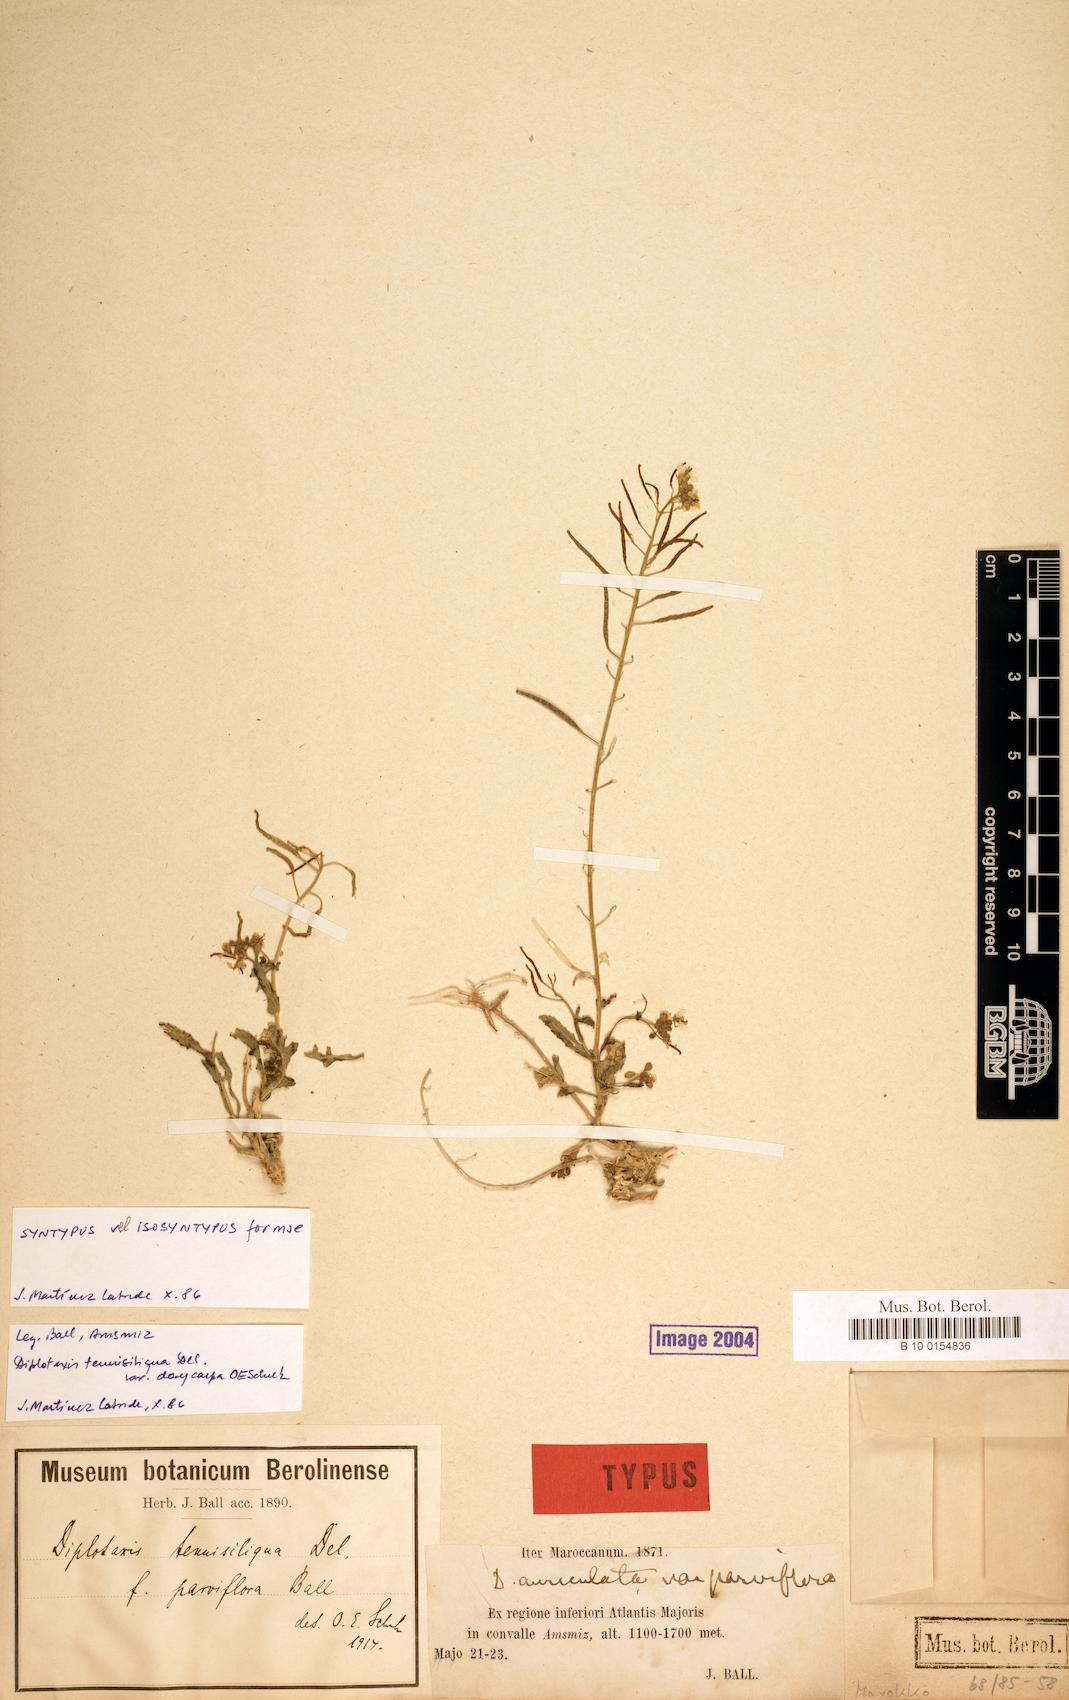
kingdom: Plantae
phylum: Tracheophyta
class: Magnoliopsida
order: Brassicales
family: Brassicaceae
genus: Diplotaxis
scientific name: Diplotaxis tenuisiliqua
